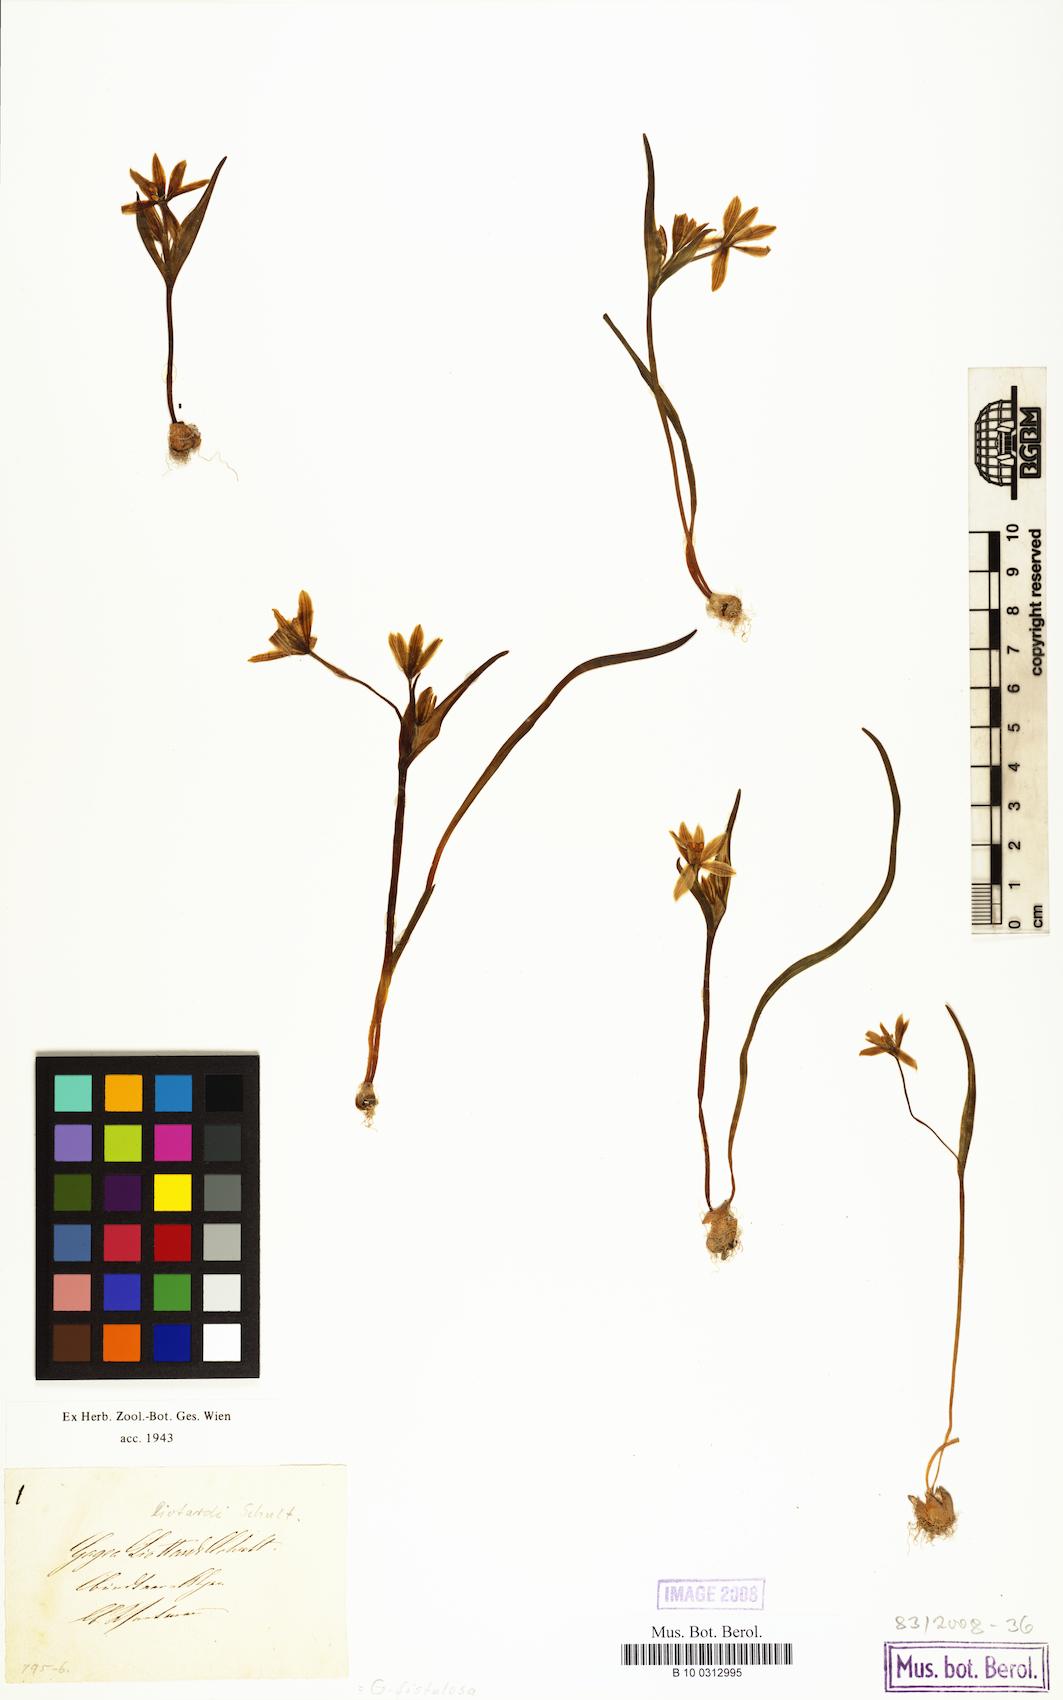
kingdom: Plantae
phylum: Tracheophyta
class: Liliopsida
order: Liliales
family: Liliaceae
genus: Gagea
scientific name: Gagea
